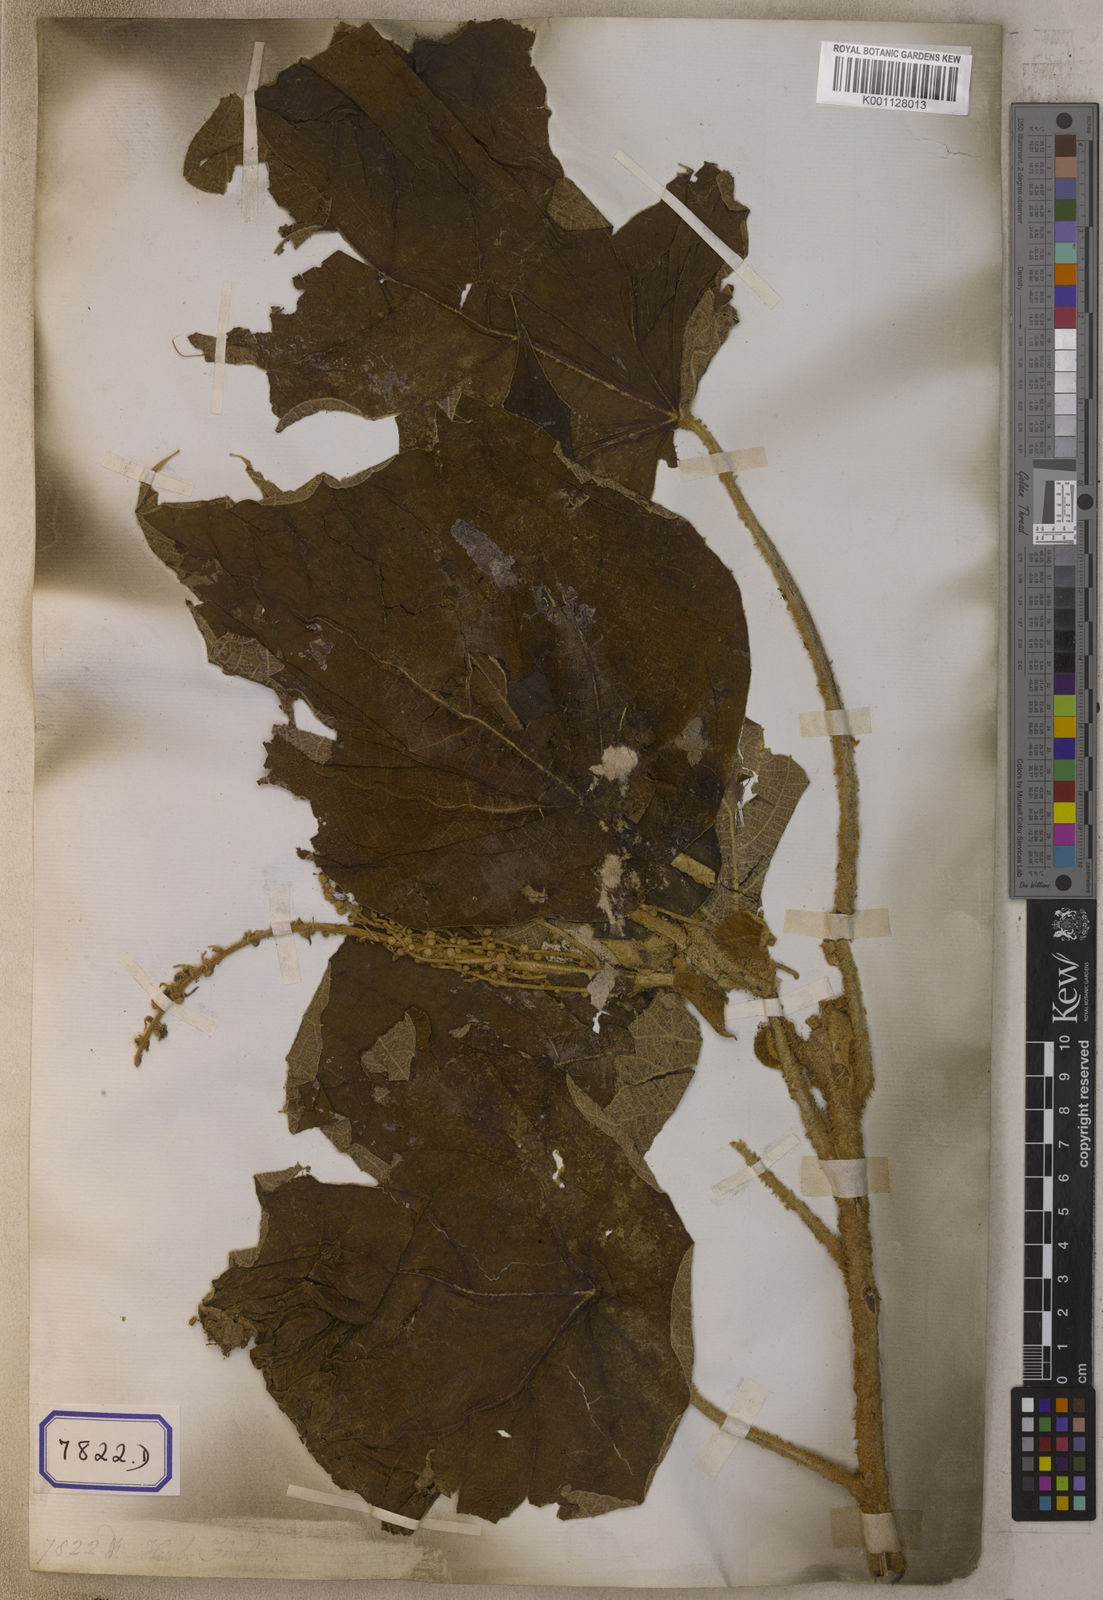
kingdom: Plantae
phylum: Tracheophyta
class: Magnoliopsida
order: Malpighiales
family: Euphorbiaceae
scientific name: Euphorbiaceae
